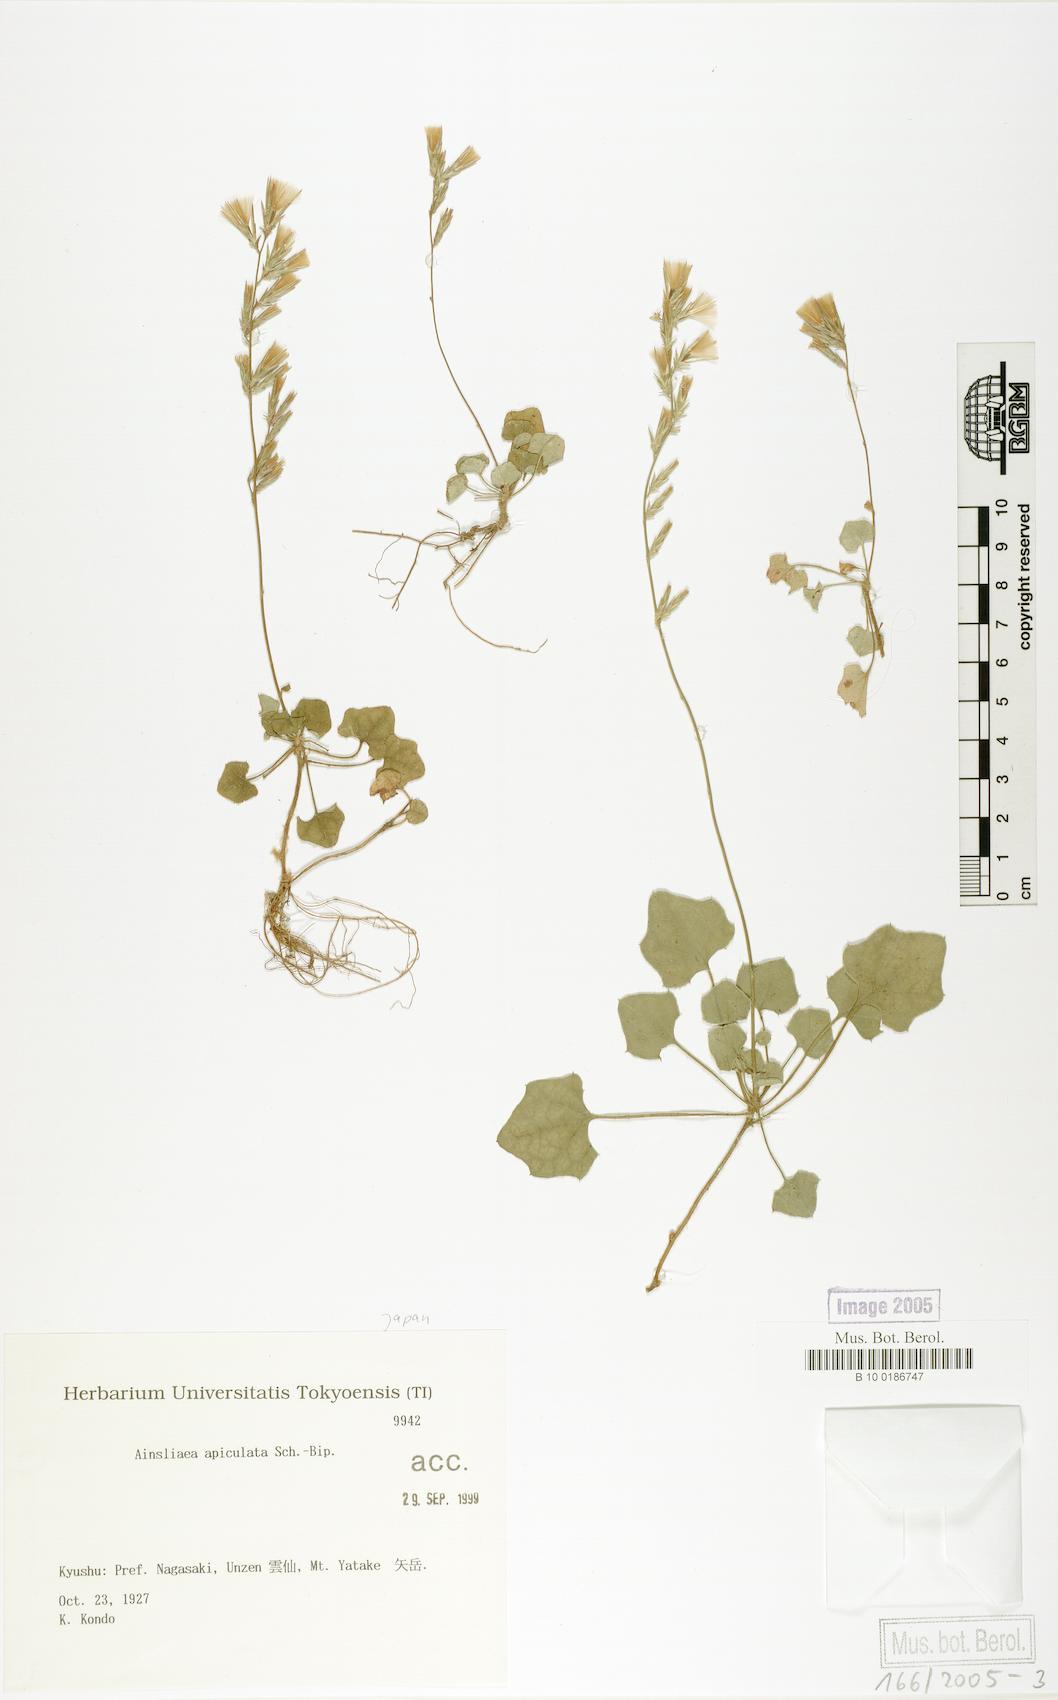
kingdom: Plantae
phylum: Tracheophyta
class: Magnoliopsida
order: Asterales
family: Asteraceae
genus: Ainsliaea
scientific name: Ainsliaea apiculata
